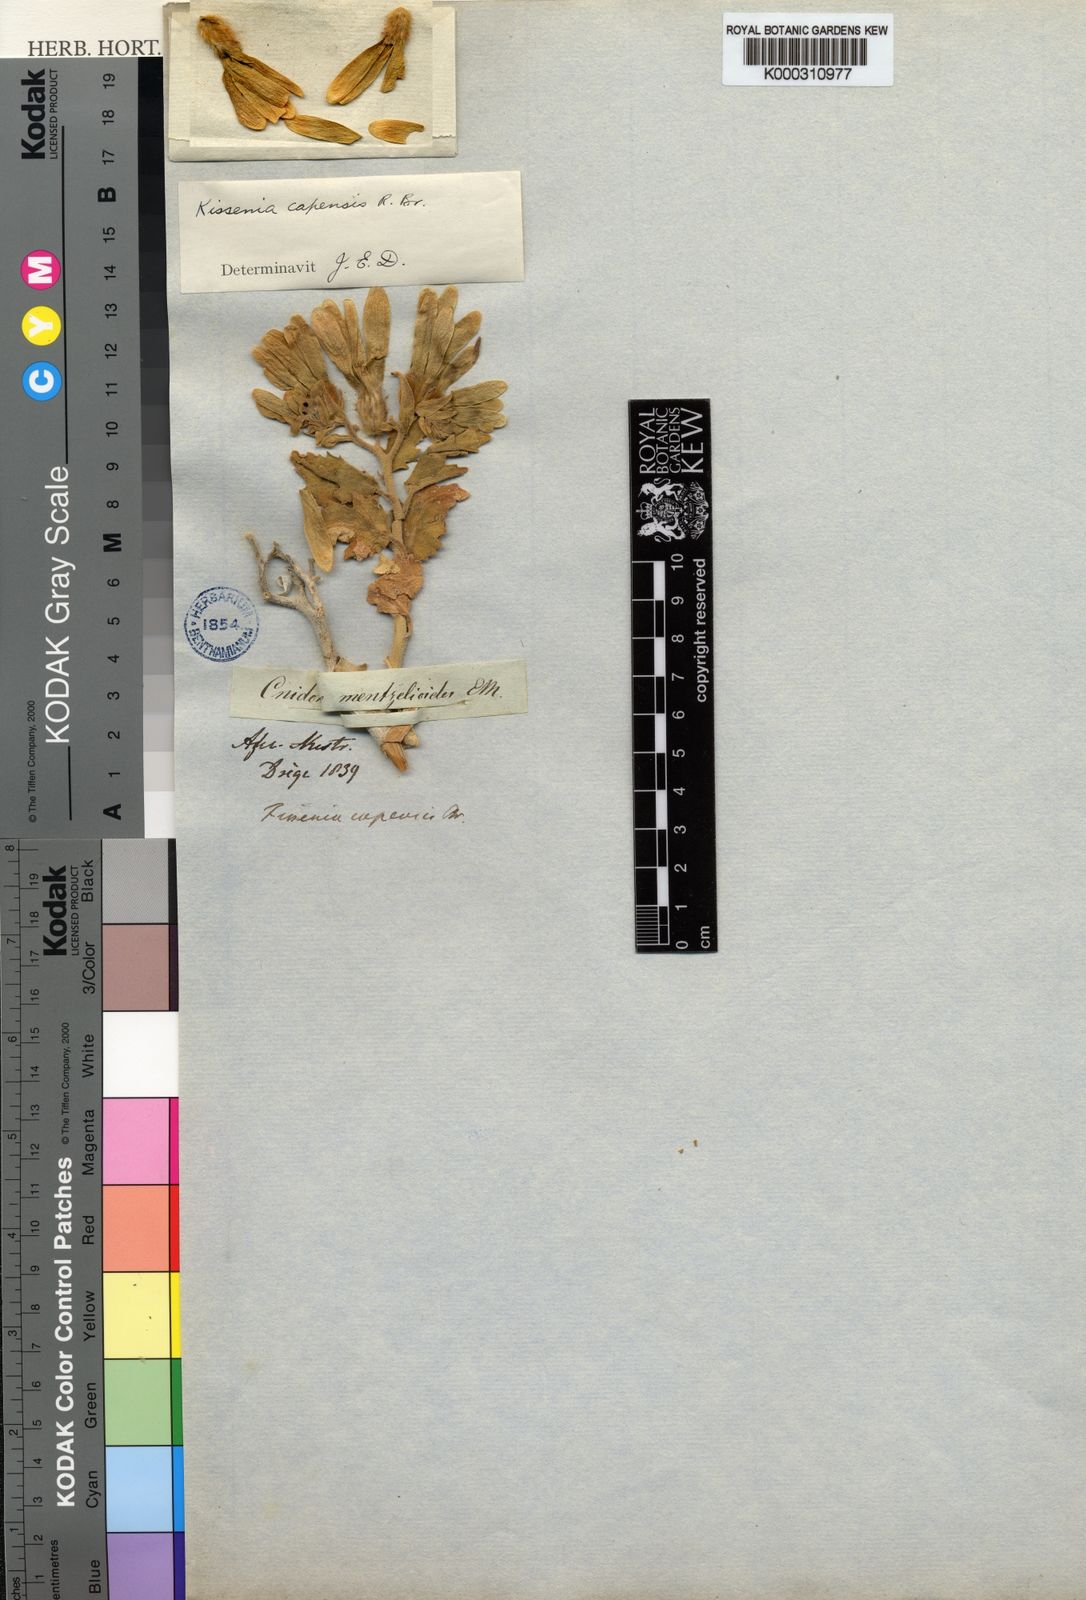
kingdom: Plantae
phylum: Tracheophyta
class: Magnoliopsida
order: Cornales
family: Loasaceae
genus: Kissenia
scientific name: Kissenia capensis
